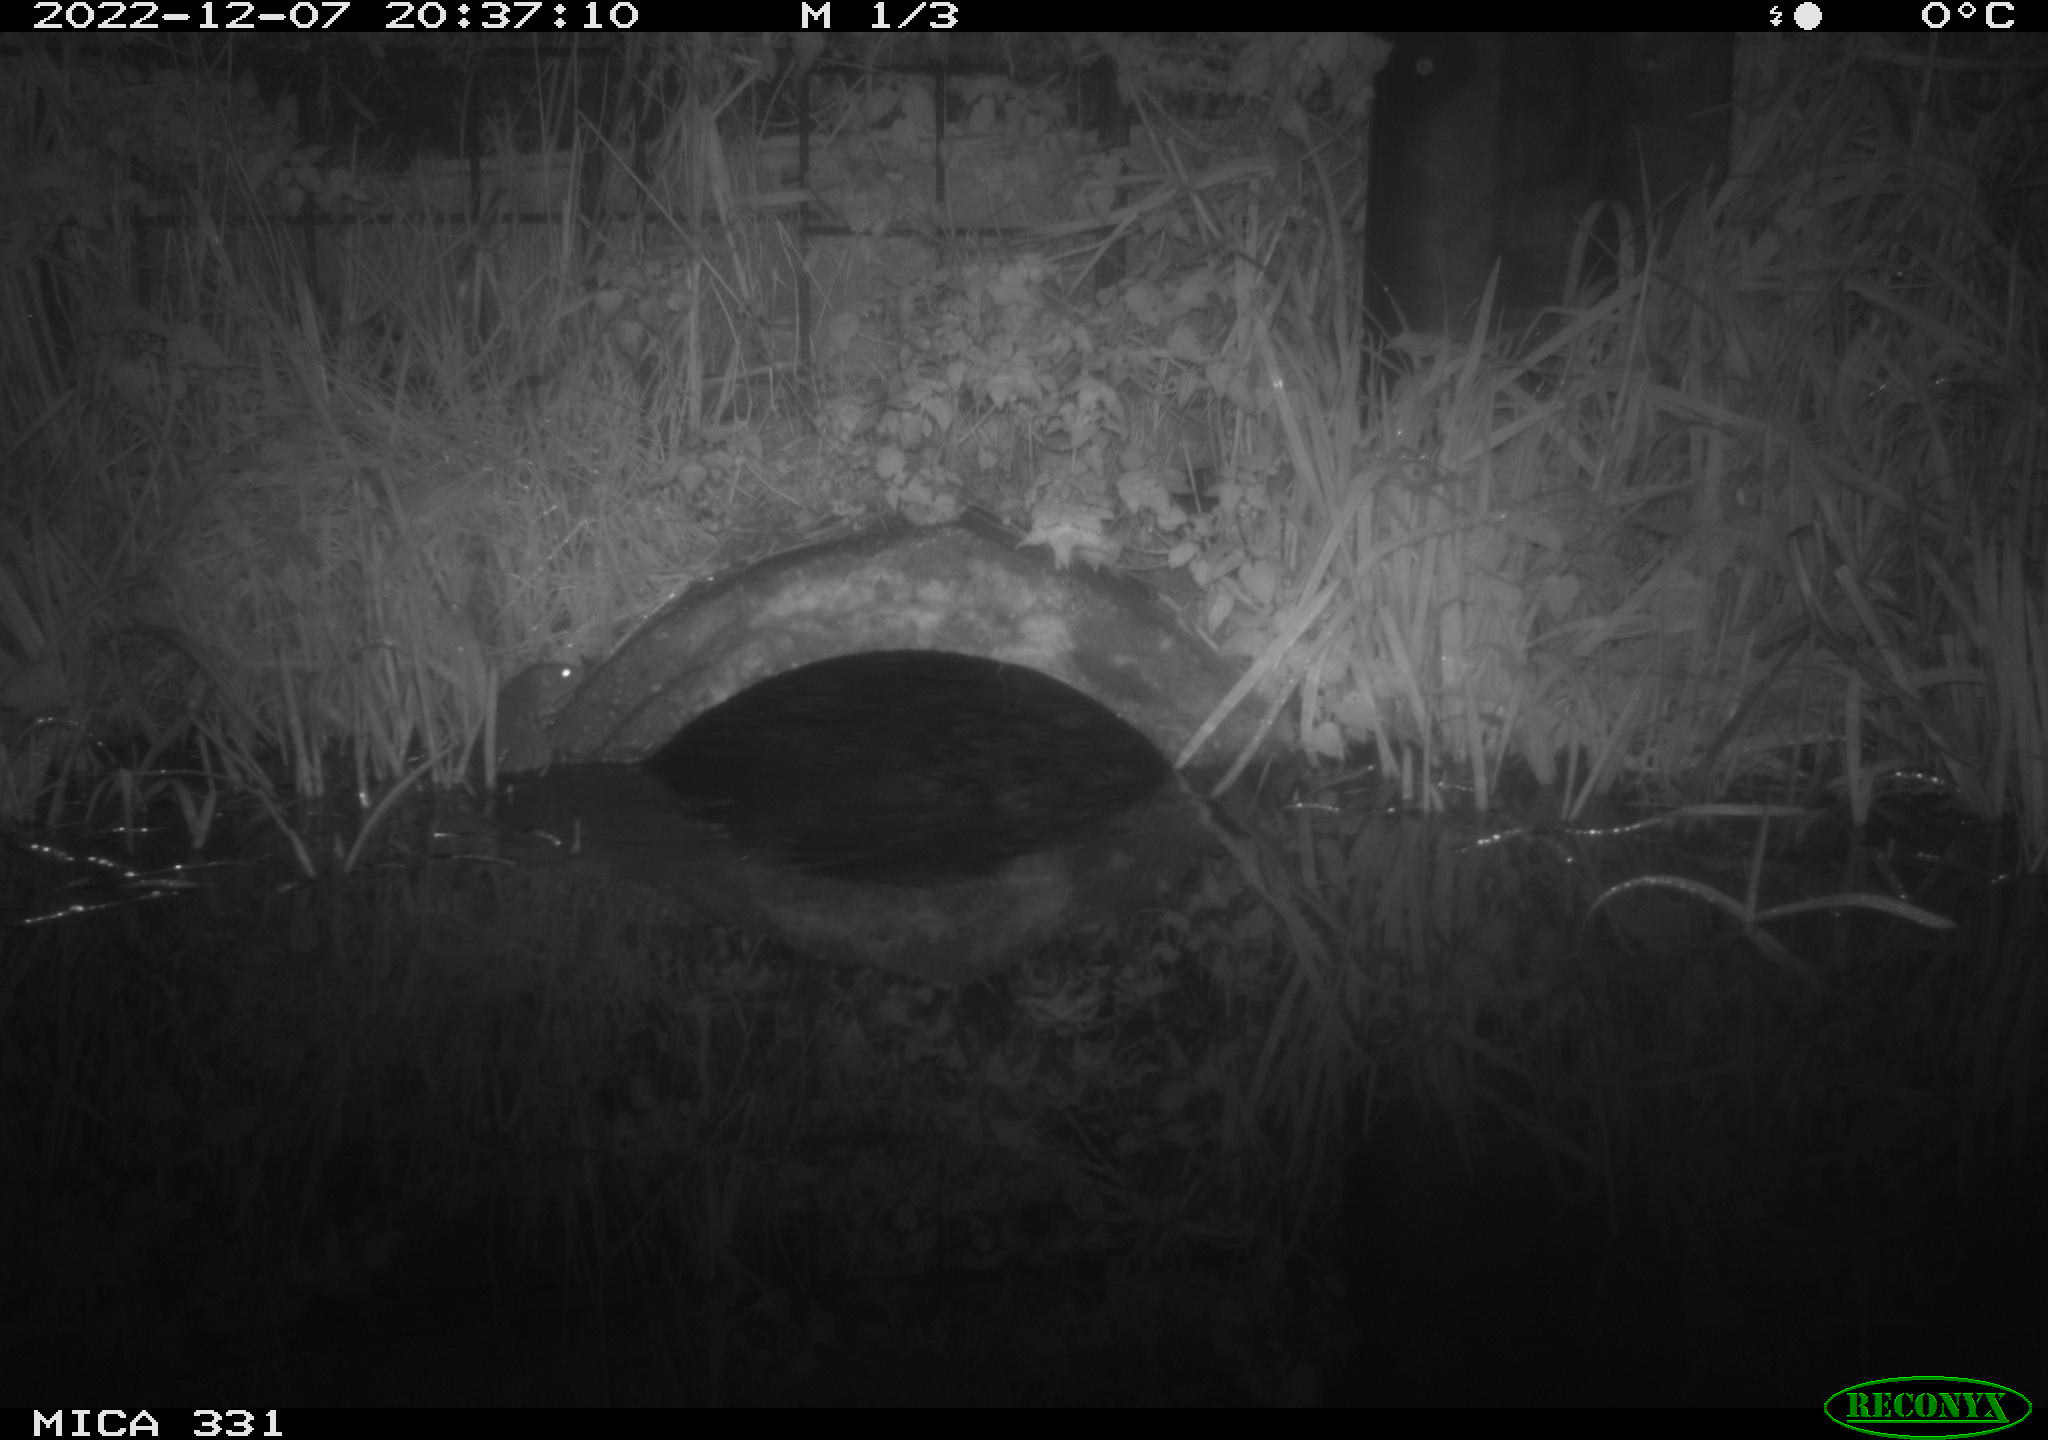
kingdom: Animalia
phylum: Chordata
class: Mammalia
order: Rodentia
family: Muridae
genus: Rattus
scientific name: Rattus norvegicus
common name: Brown rat
